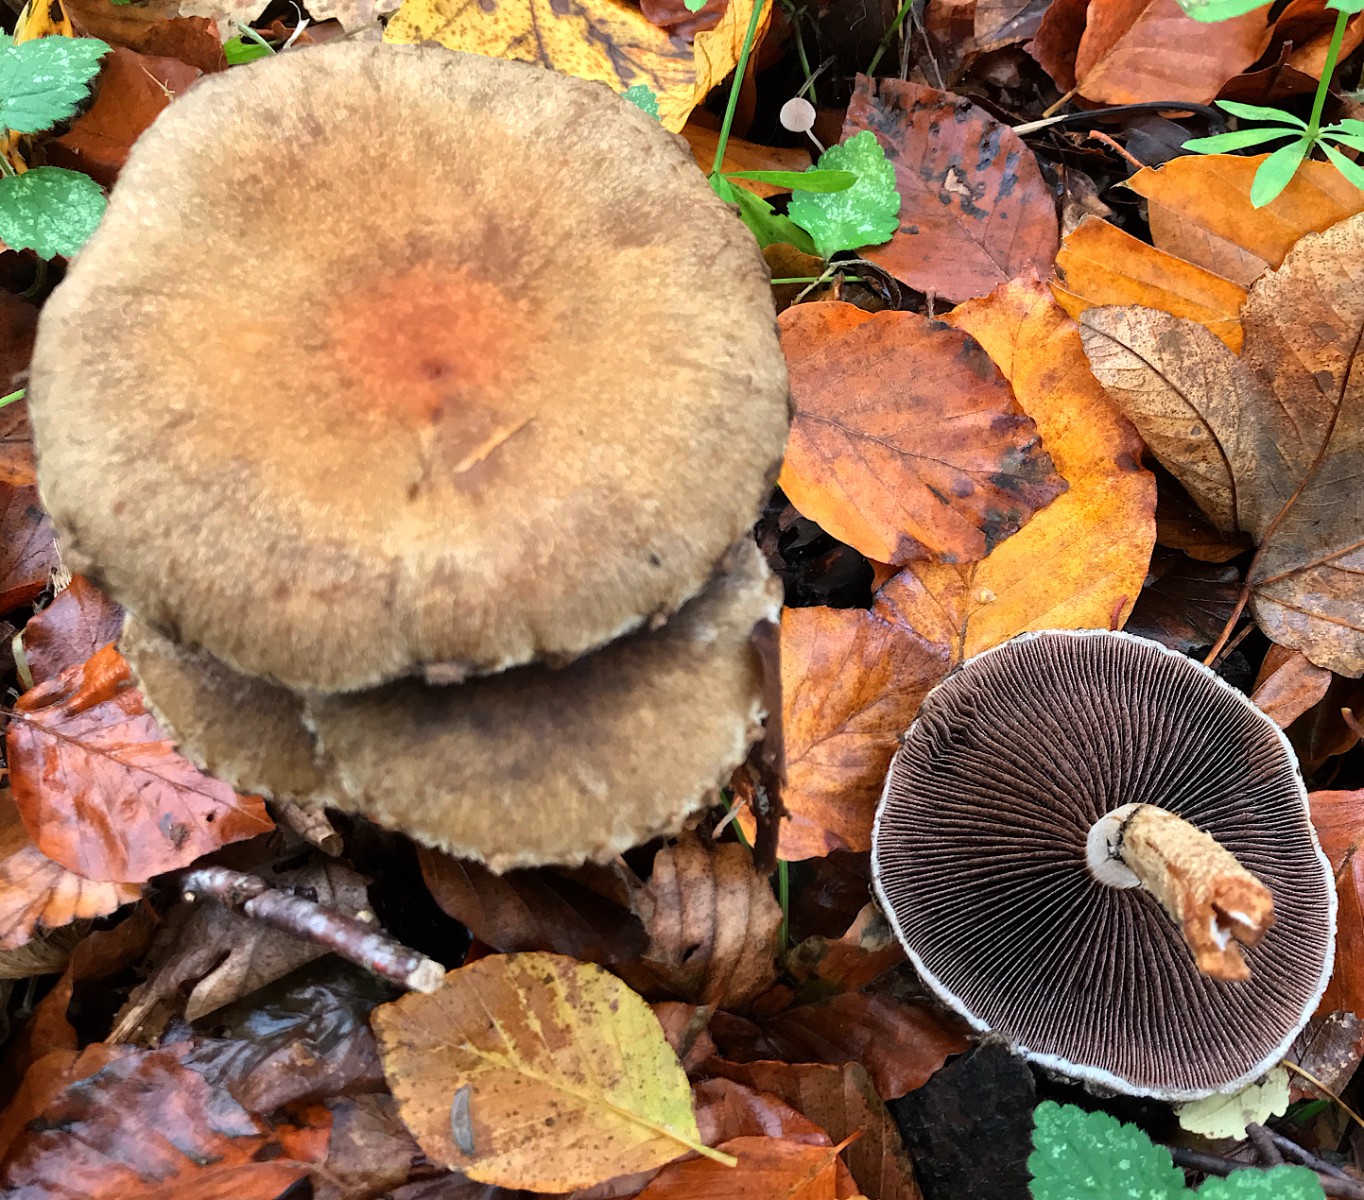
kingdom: Fungi
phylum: Basidiomycota
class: Agaricomycetes
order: Agaricales
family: Psathyrellaceae
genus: Lacrymaria
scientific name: Lacrymaria lacrymabunda
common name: grædende mørkhat
